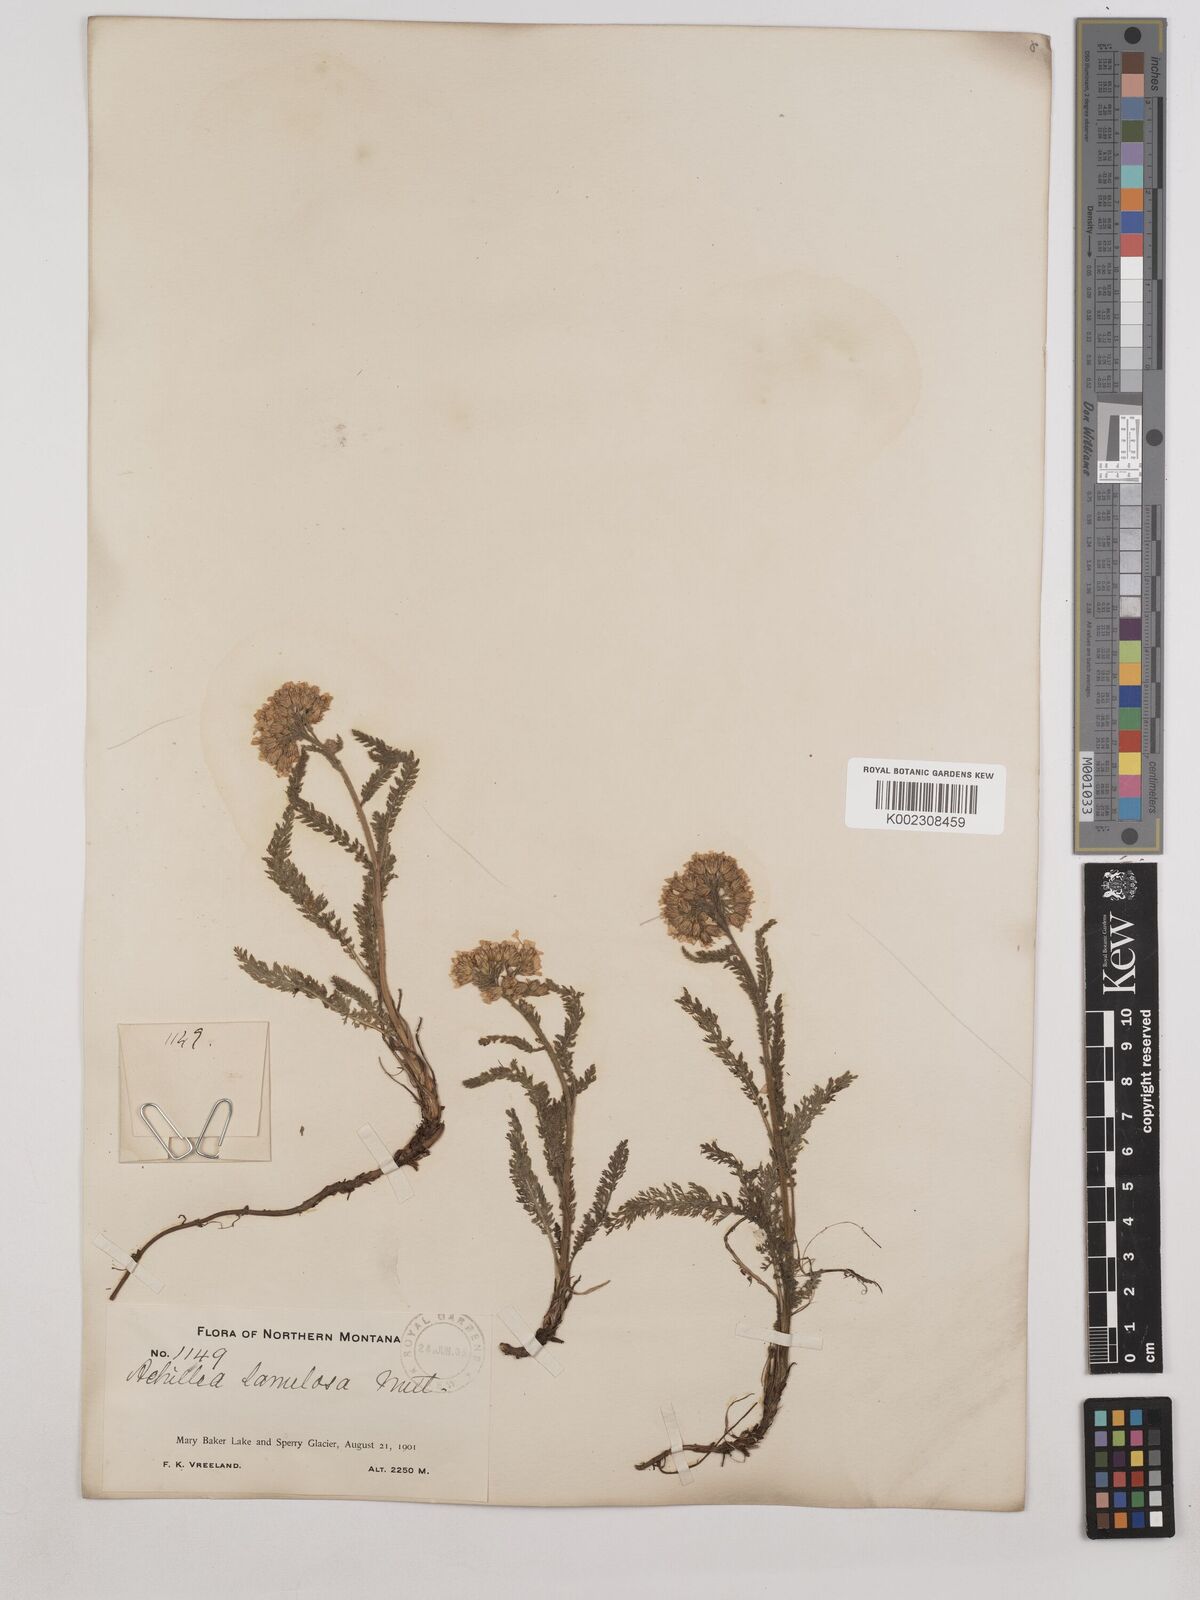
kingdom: Plantae
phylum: Tracheophyta
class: Magnoliopsida
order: Asterales
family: Asteraceae
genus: Achillea
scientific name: Achillea millefolium
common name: Yarrow
